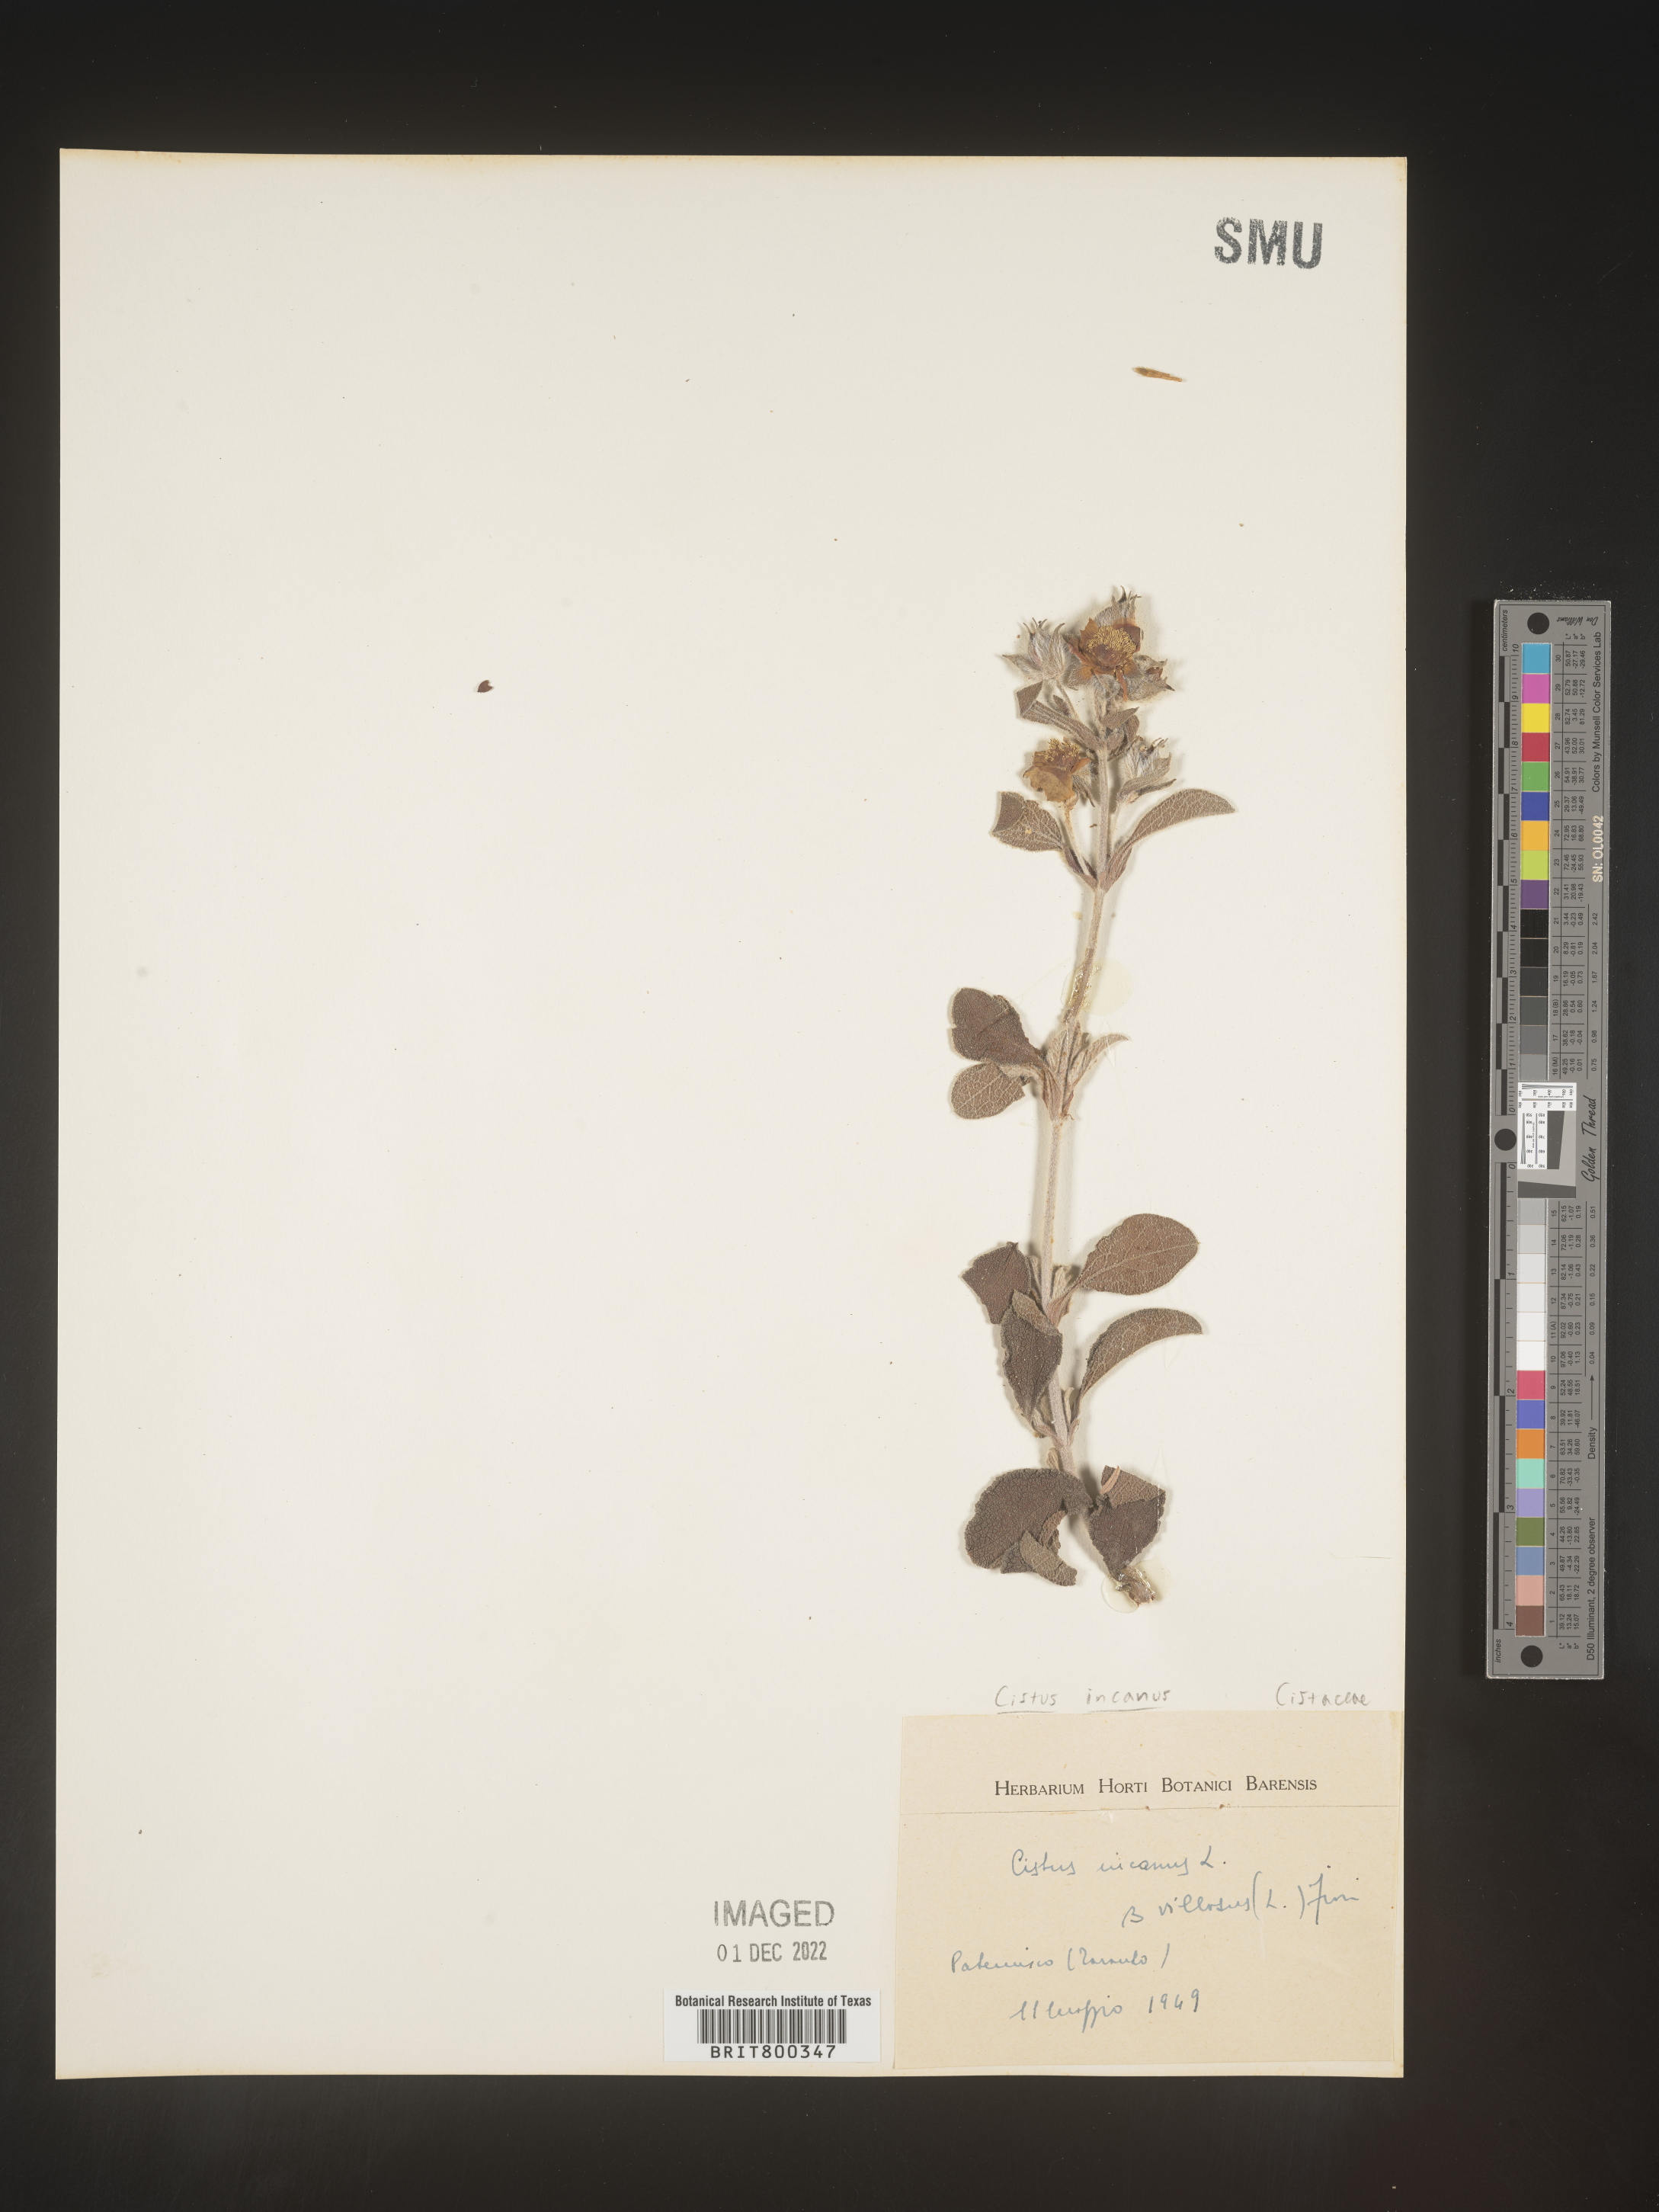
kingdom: Plantae
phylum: Tracheophyta
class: Magnoliopsida
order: Malvales
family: Cistaceae
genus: Cistus
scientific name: Cistus
